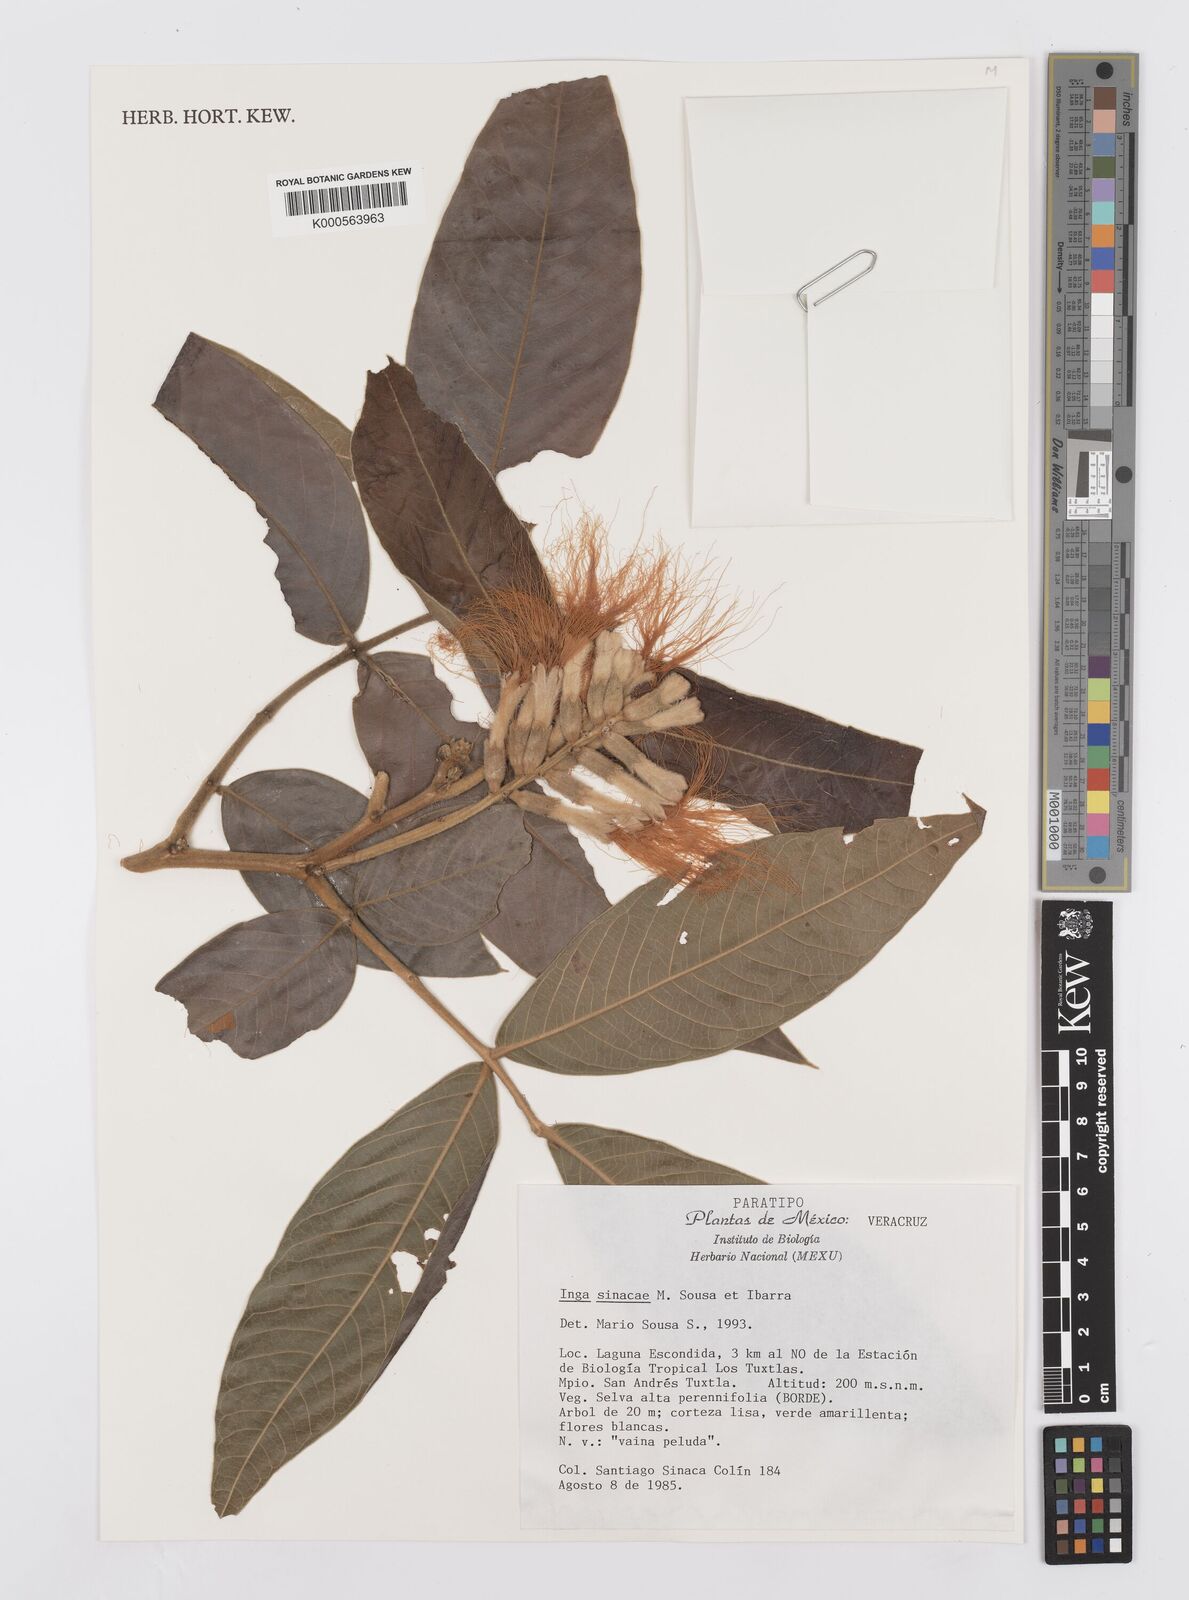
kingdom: Plantae
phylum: Tracheophyta
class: Magnoliopsida
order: Fabales
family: Fabaceae
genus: Inga
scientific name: Inga sinacae
